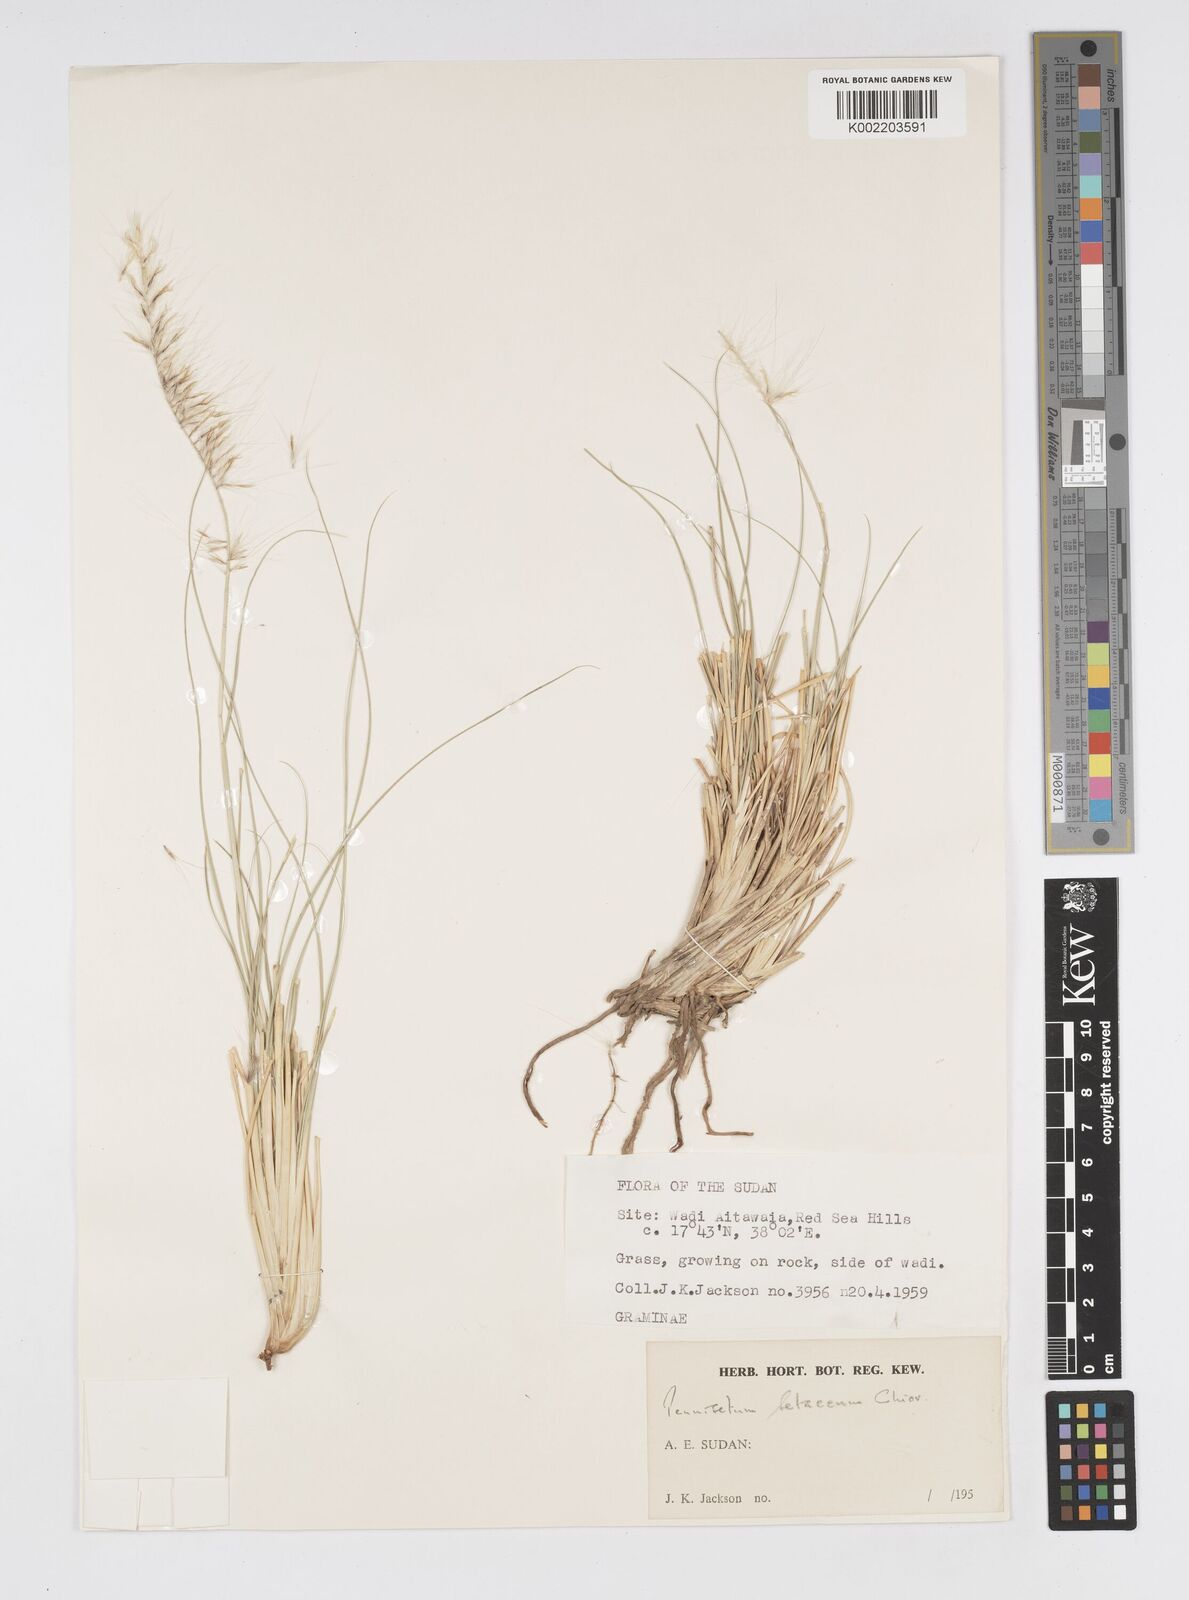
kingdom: Plantae
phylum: Tracheophyta
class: Liliopsida
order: Poales
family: Poaceae
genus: Cenchrus
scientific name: Cenchrus setaceus
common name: Crimson fountaingrass
